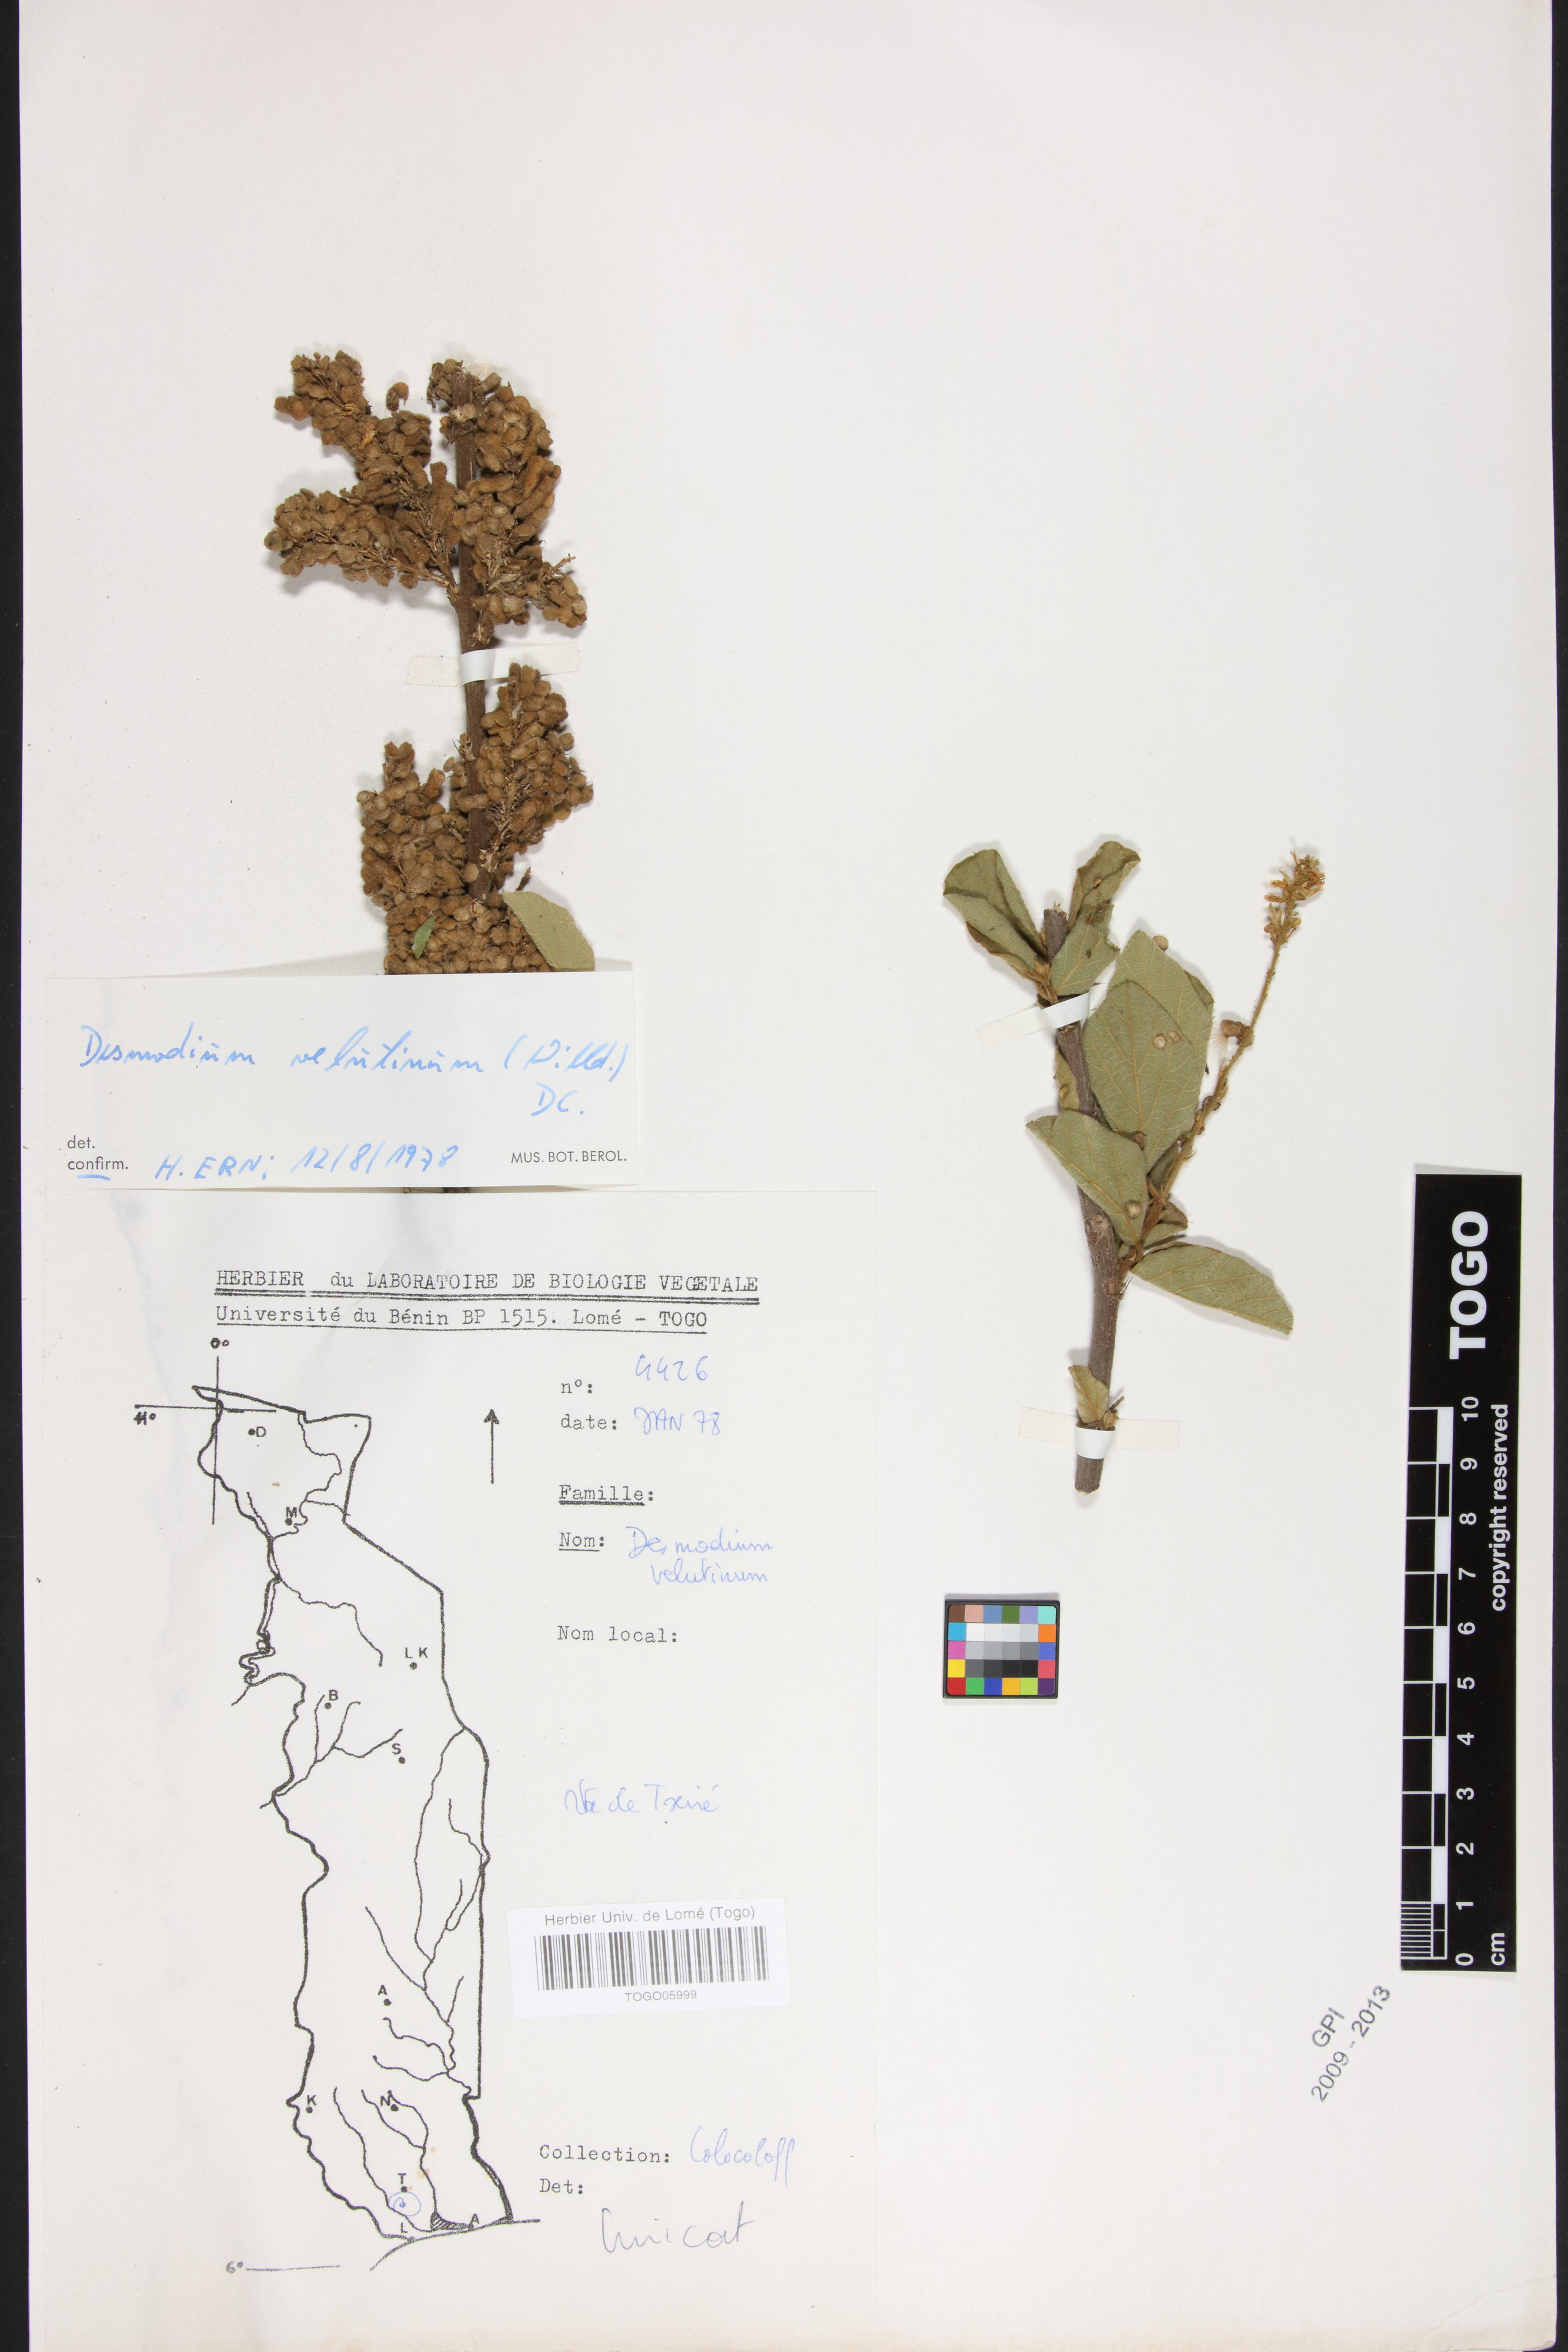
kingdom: Plantae
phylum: Tracheophyta
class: Magnoliopsida
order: Fabales
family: Fabaceae
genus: Polhillides
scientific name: Polhillides velutina
